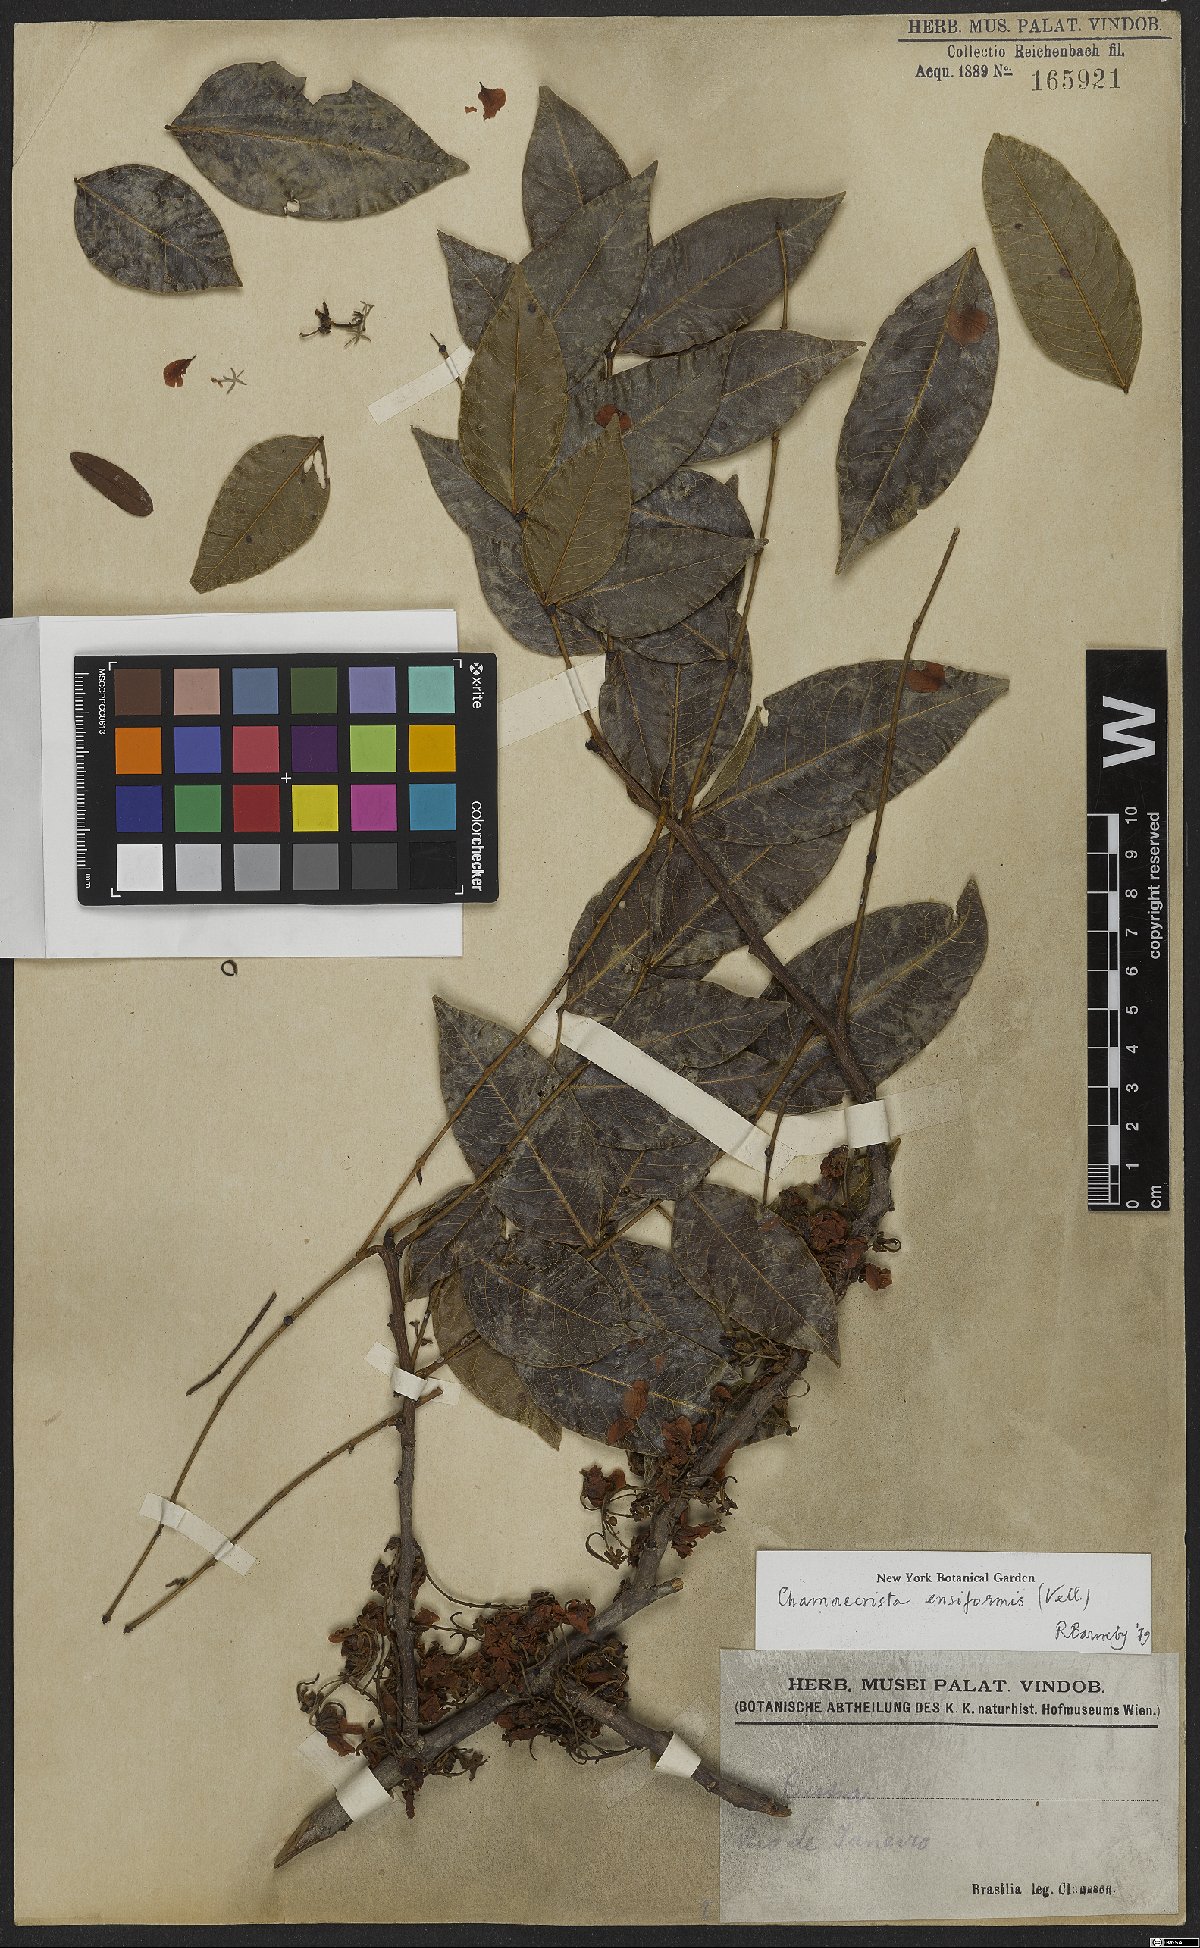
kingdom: Plantae
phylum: Tracheophyta
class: Magnoliopsida
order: Fabales
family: Fabaceae
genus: Chamaecrista
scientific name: Chamaecrista ensiformis
